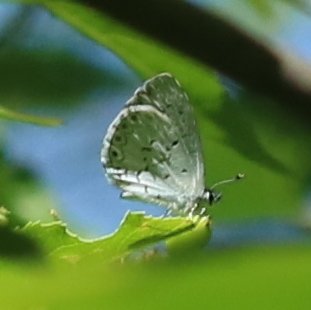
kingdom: Animalia
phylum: Arthropoda
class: Insecta
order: Lepidoptera
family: Lycaenidae
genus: Cyaniris
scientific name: Cyaniris neglecta
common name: Summer Azure
